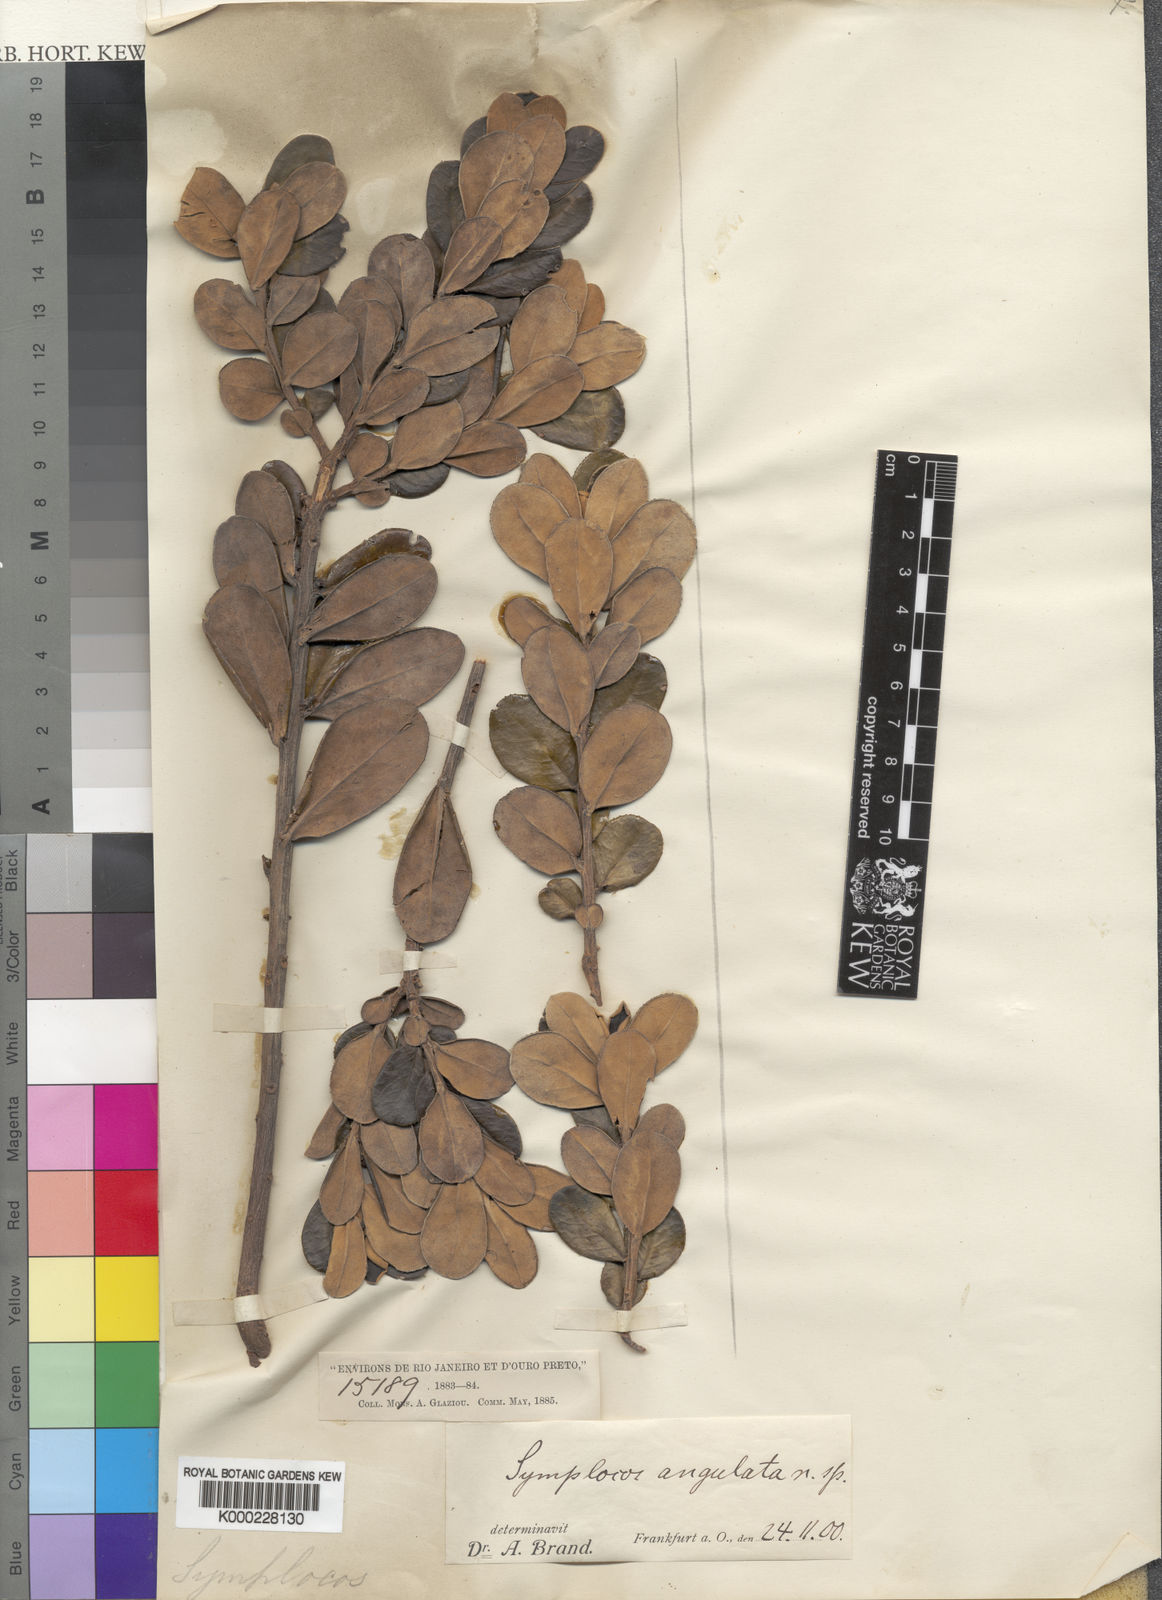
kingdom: Plantae
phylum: Tracheophyta
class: Magnoliopsida
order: Ericales
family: Symplocaceae
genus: Symplocos
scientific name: Symplocos angulata
